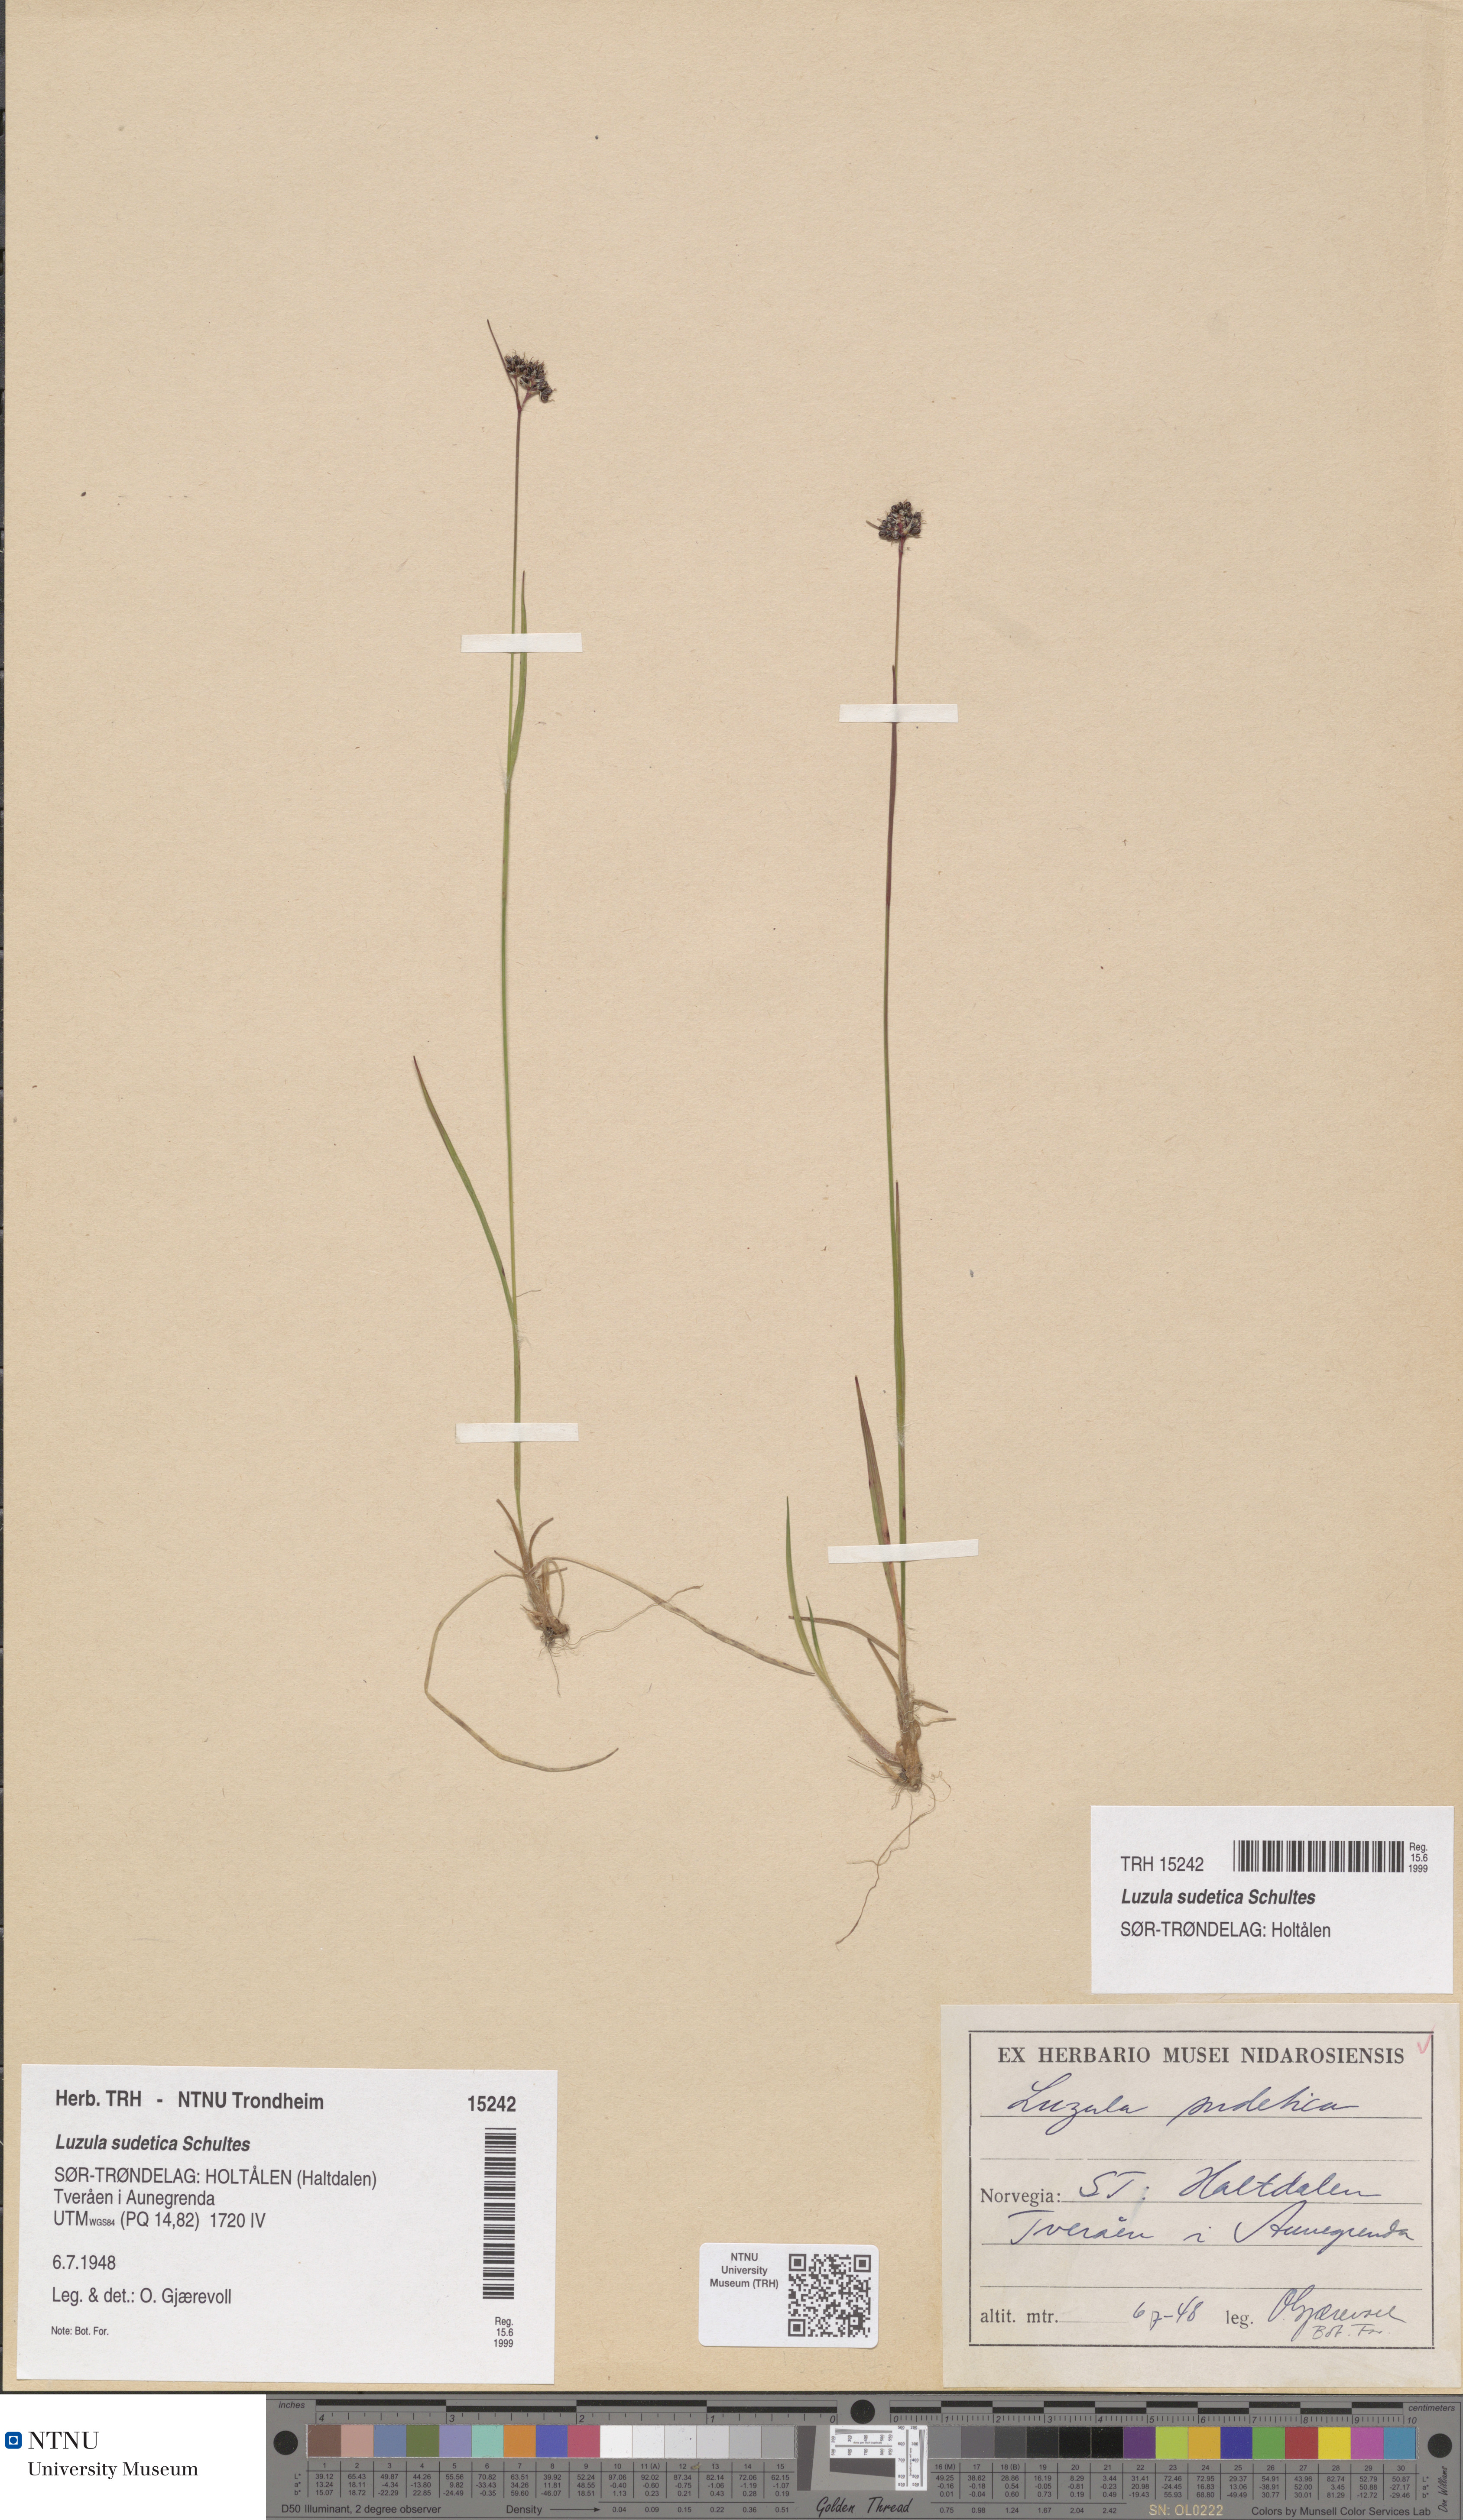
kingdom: Plantae
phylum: Tracheophyta
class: Liliopsida
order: Poales
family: Juncaceae
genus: Luzula
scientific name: Luzula sudetica
